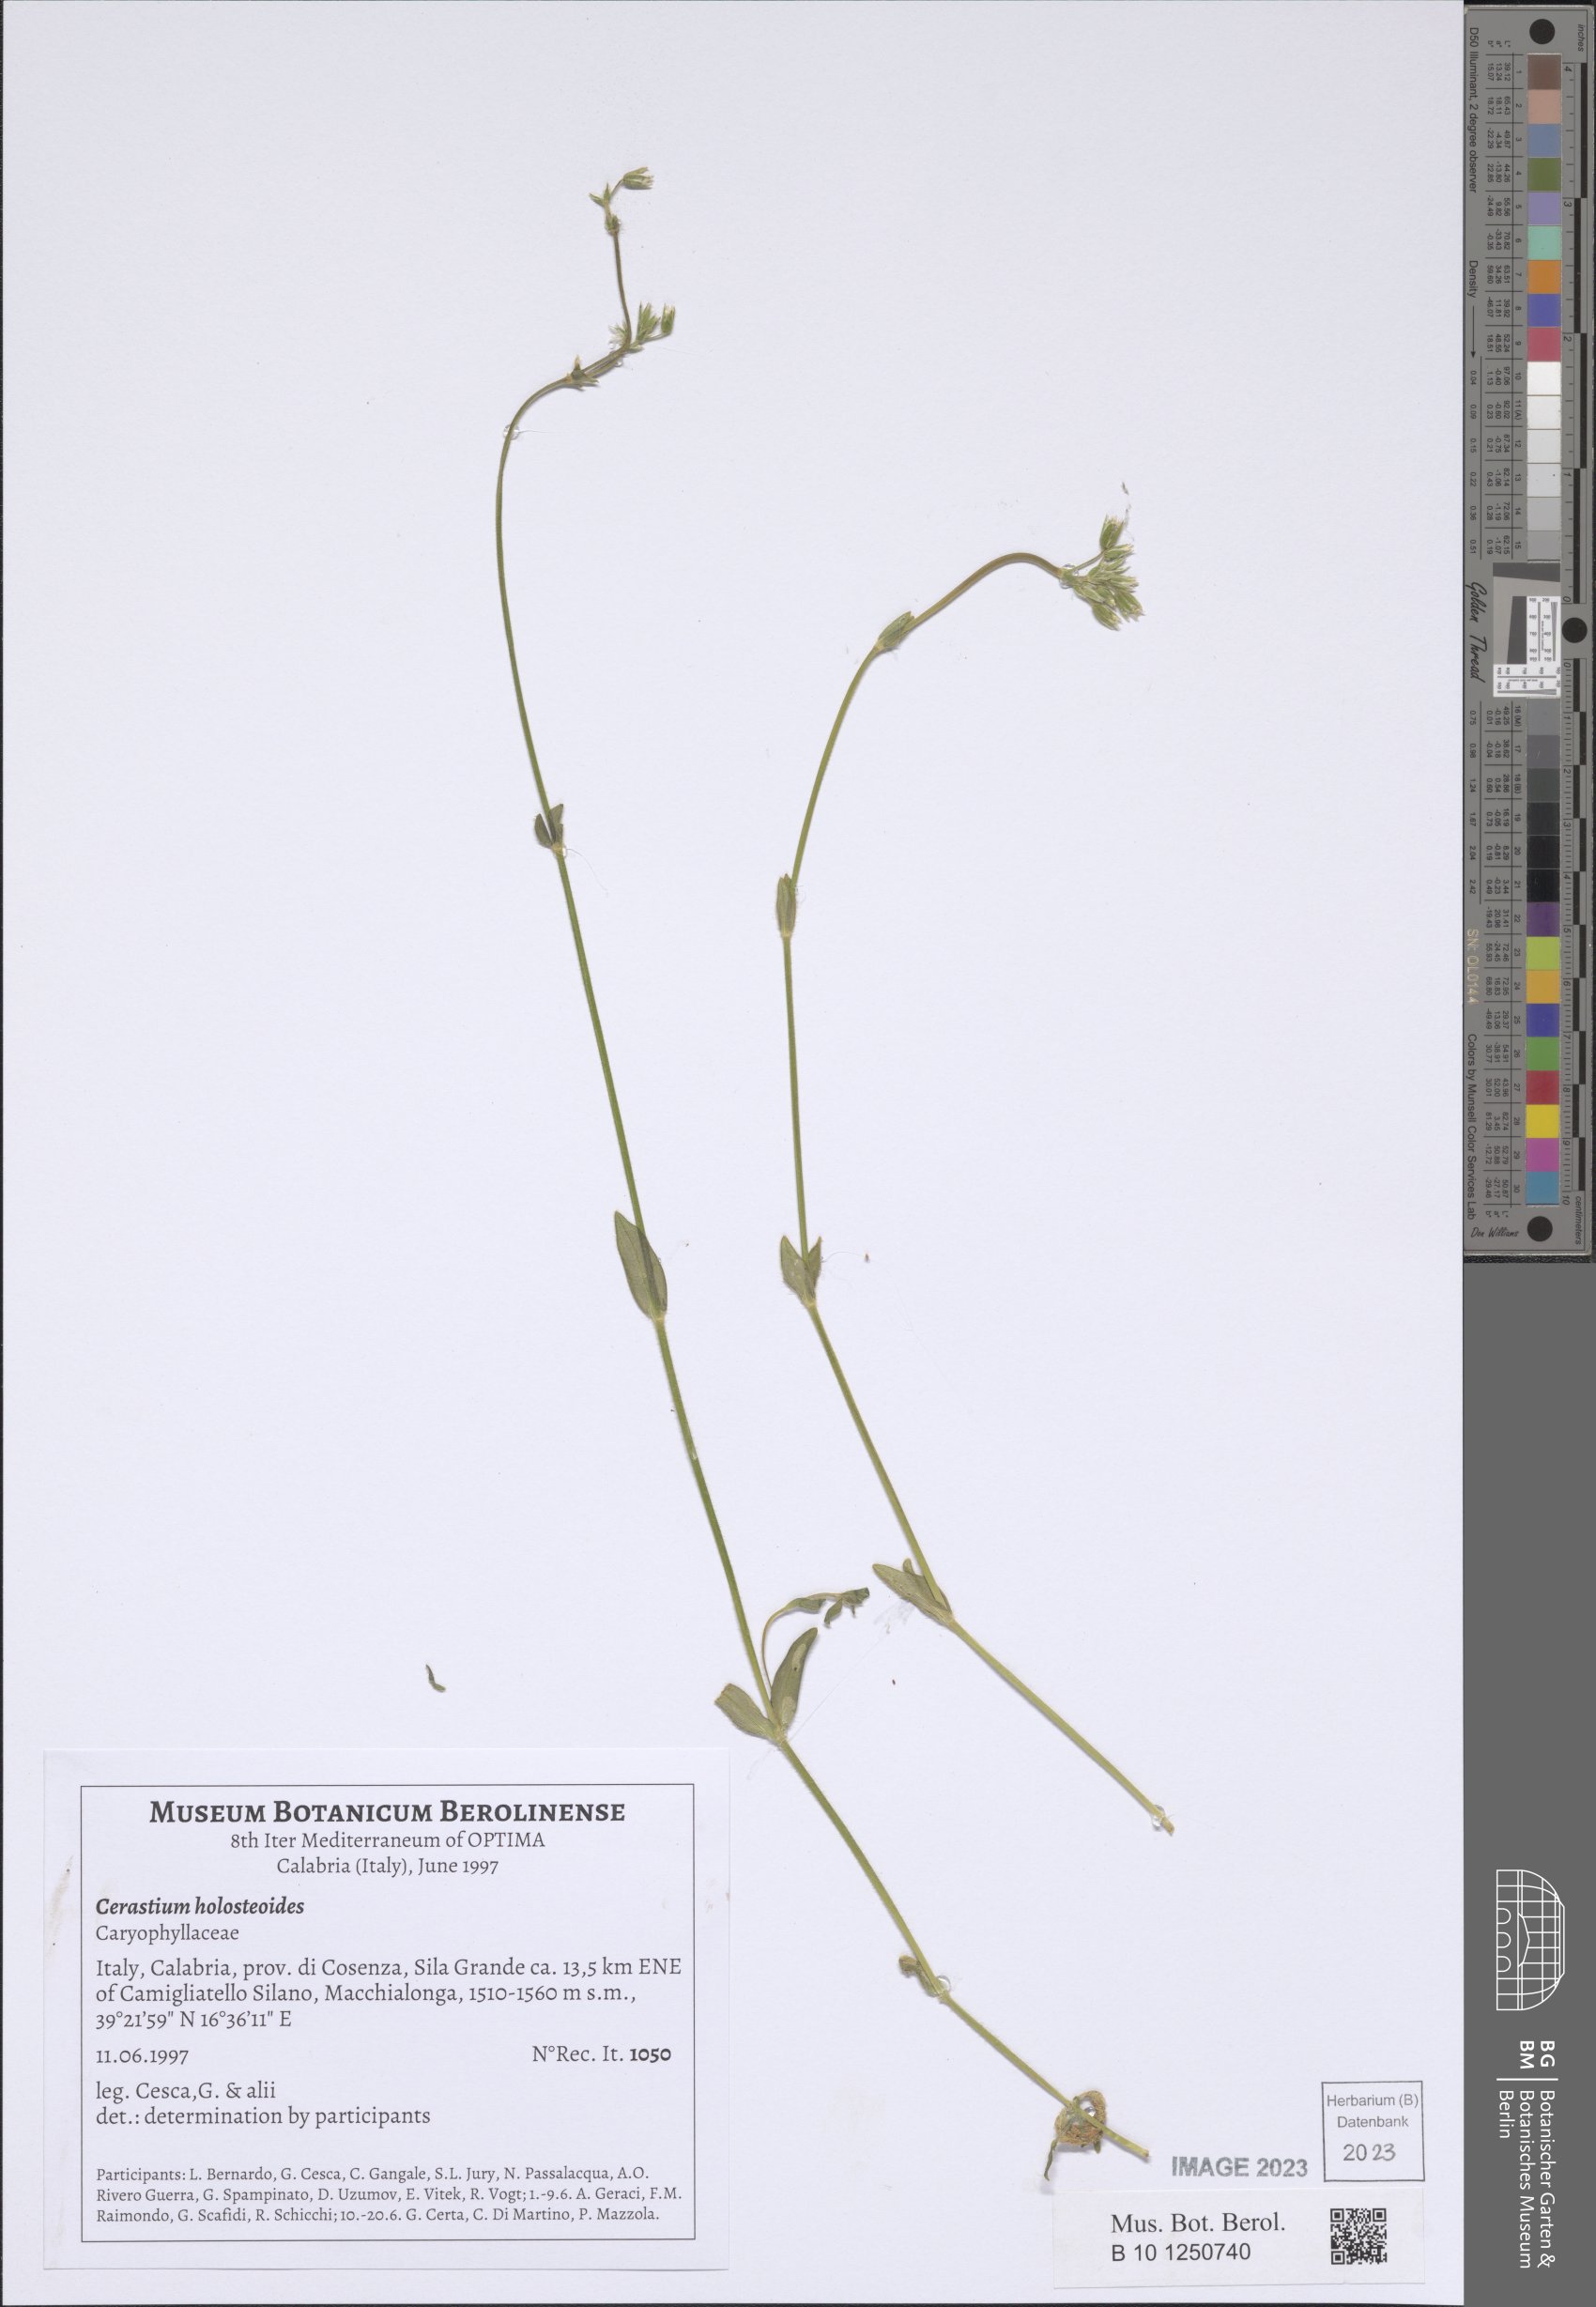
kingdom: Plantae
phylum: Tracheophyta
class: Magnoliopsida
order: Caryophyllales
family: Caryophyllaceae
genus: Cerastium
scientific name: Cerastium holosteoides
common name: Big chickweed
